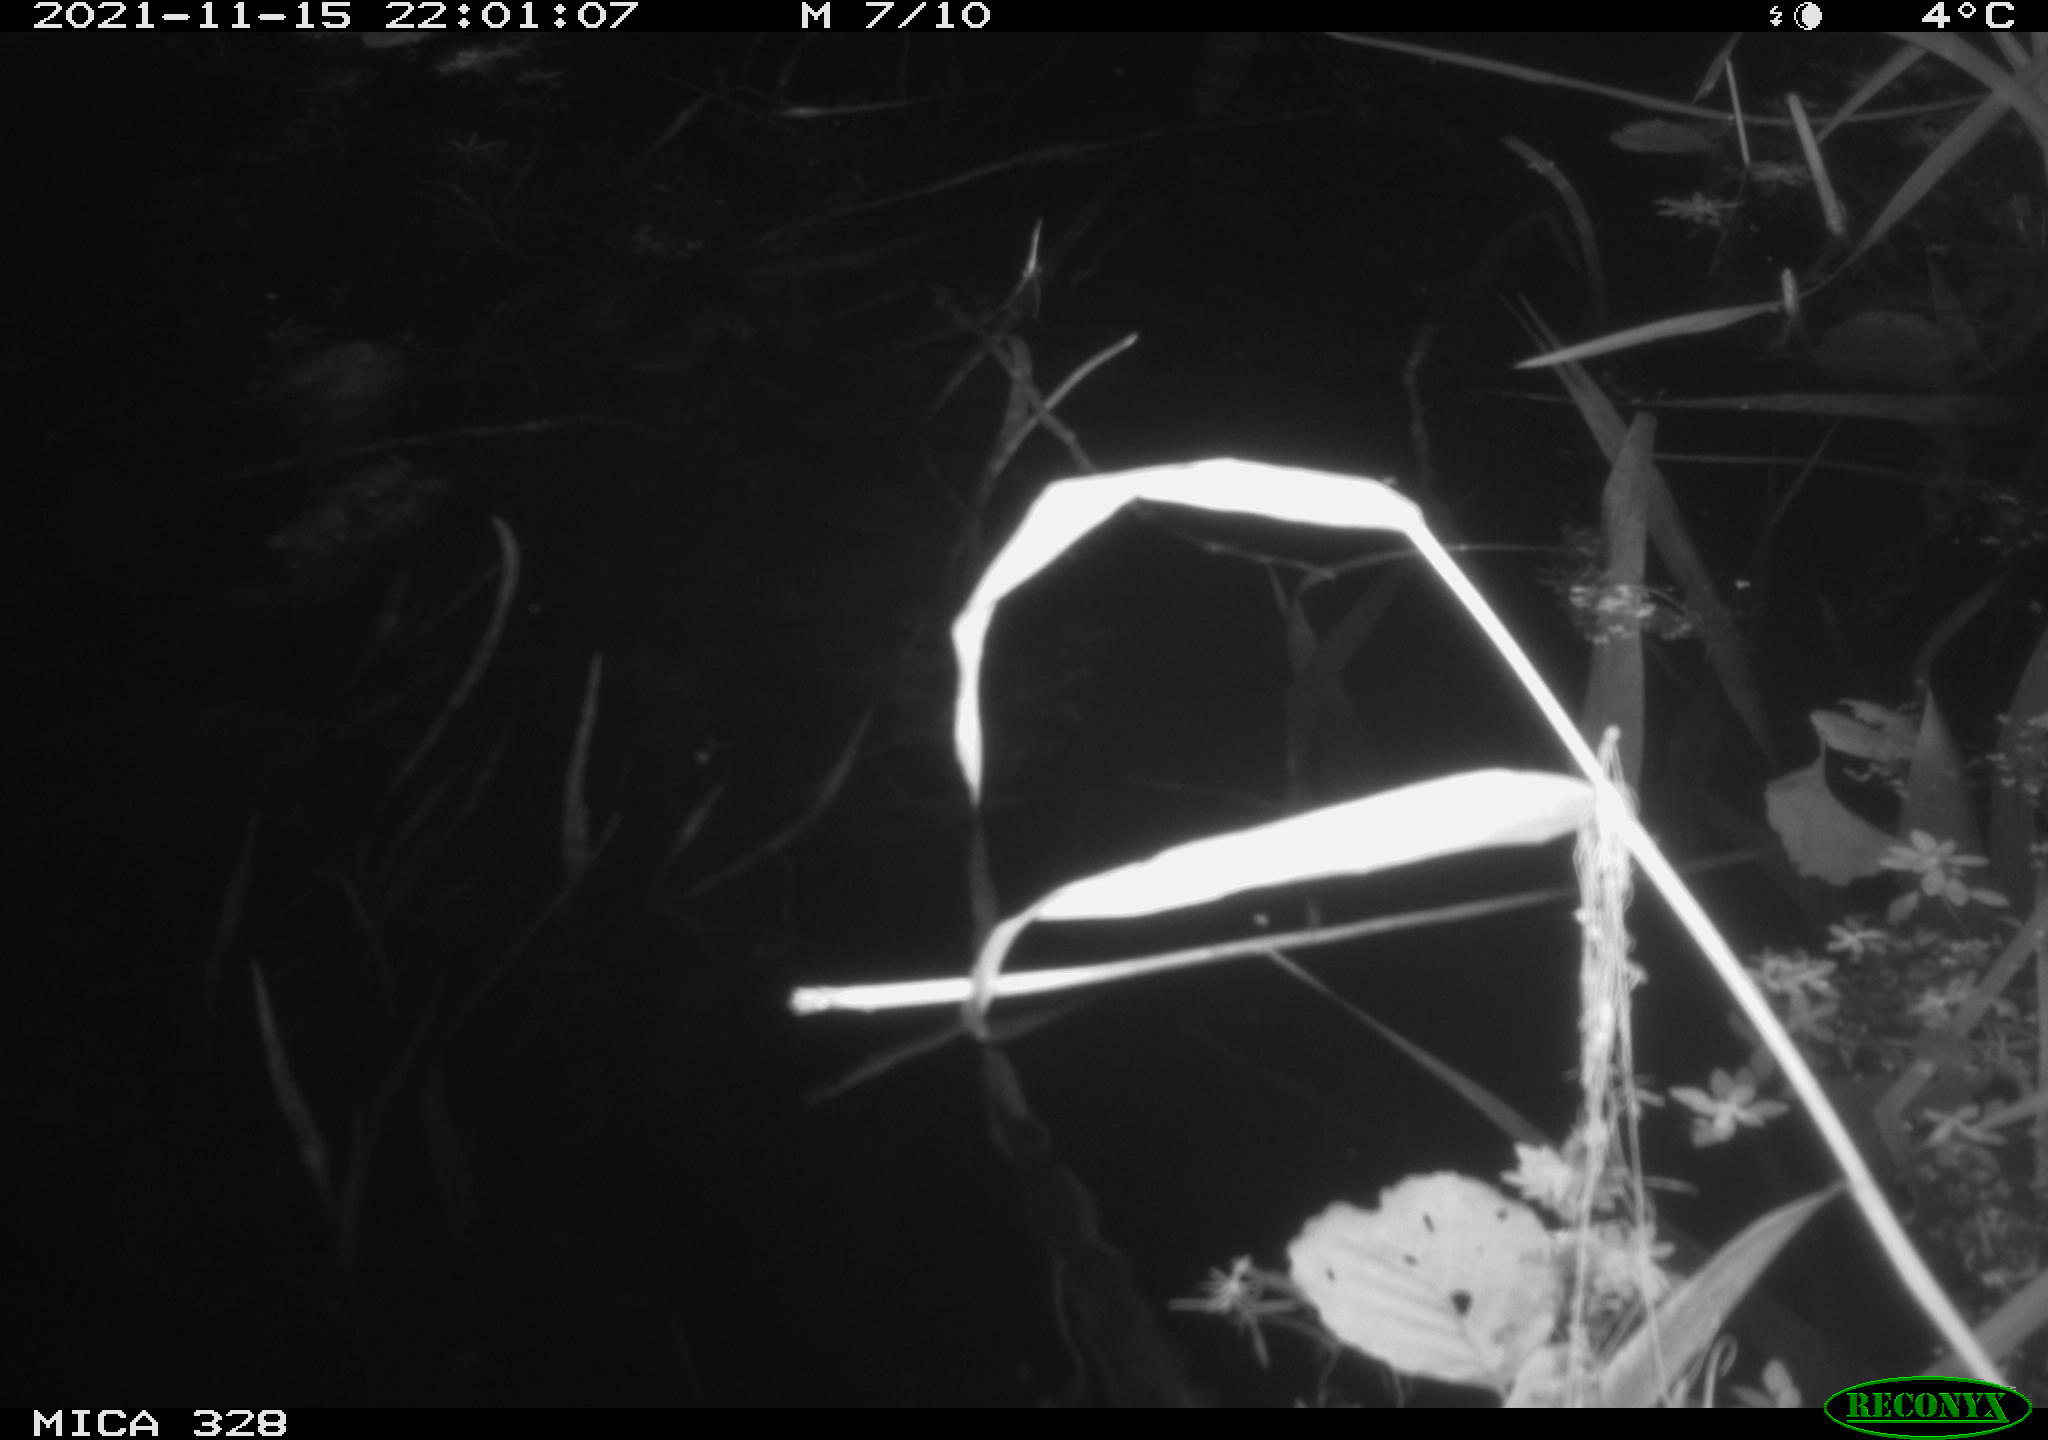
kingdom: Animalia
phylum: Chordata
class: Mammalia
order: Rodentia
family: Cricetidae
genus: Ondatra
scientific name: Ondatra zibethicus
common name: Muskrat
